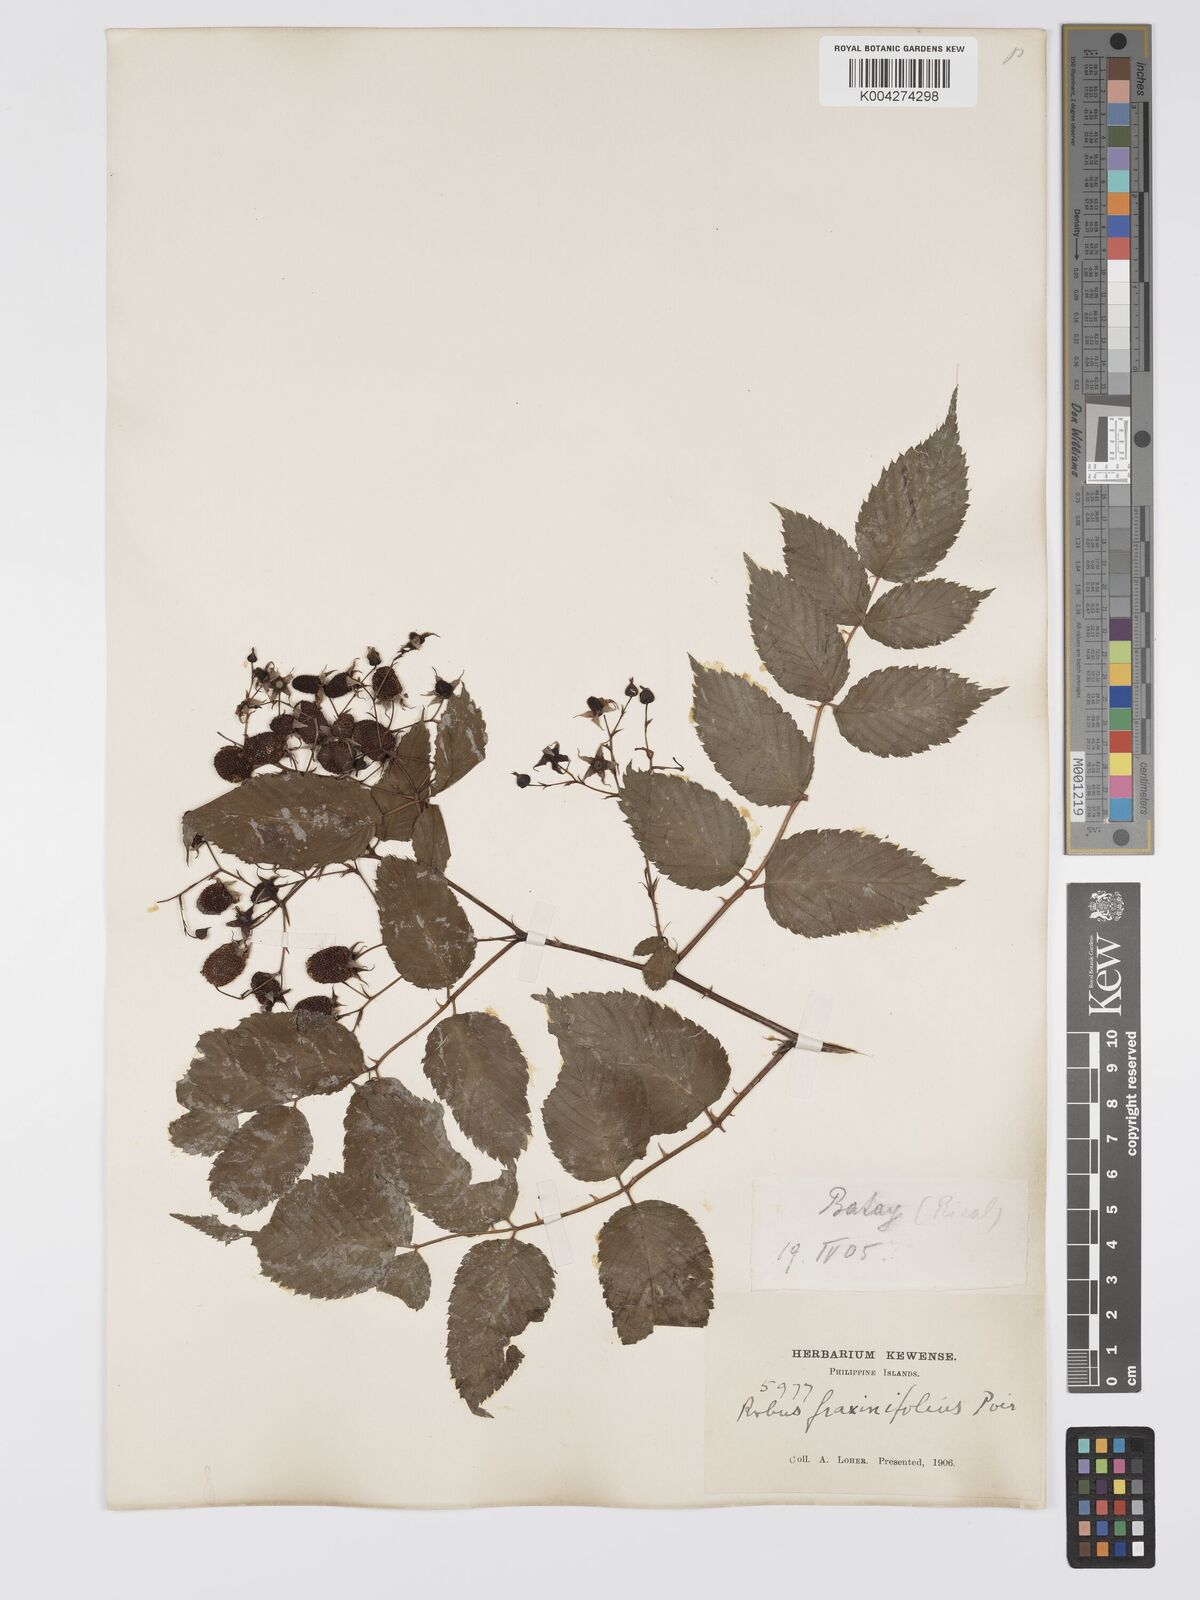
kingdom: Plantae
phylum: Tracheophyta
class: Magnoliopsida
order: Rosales
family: Rosaceae
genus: Rubus
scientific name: Rubus fraxinifolius
